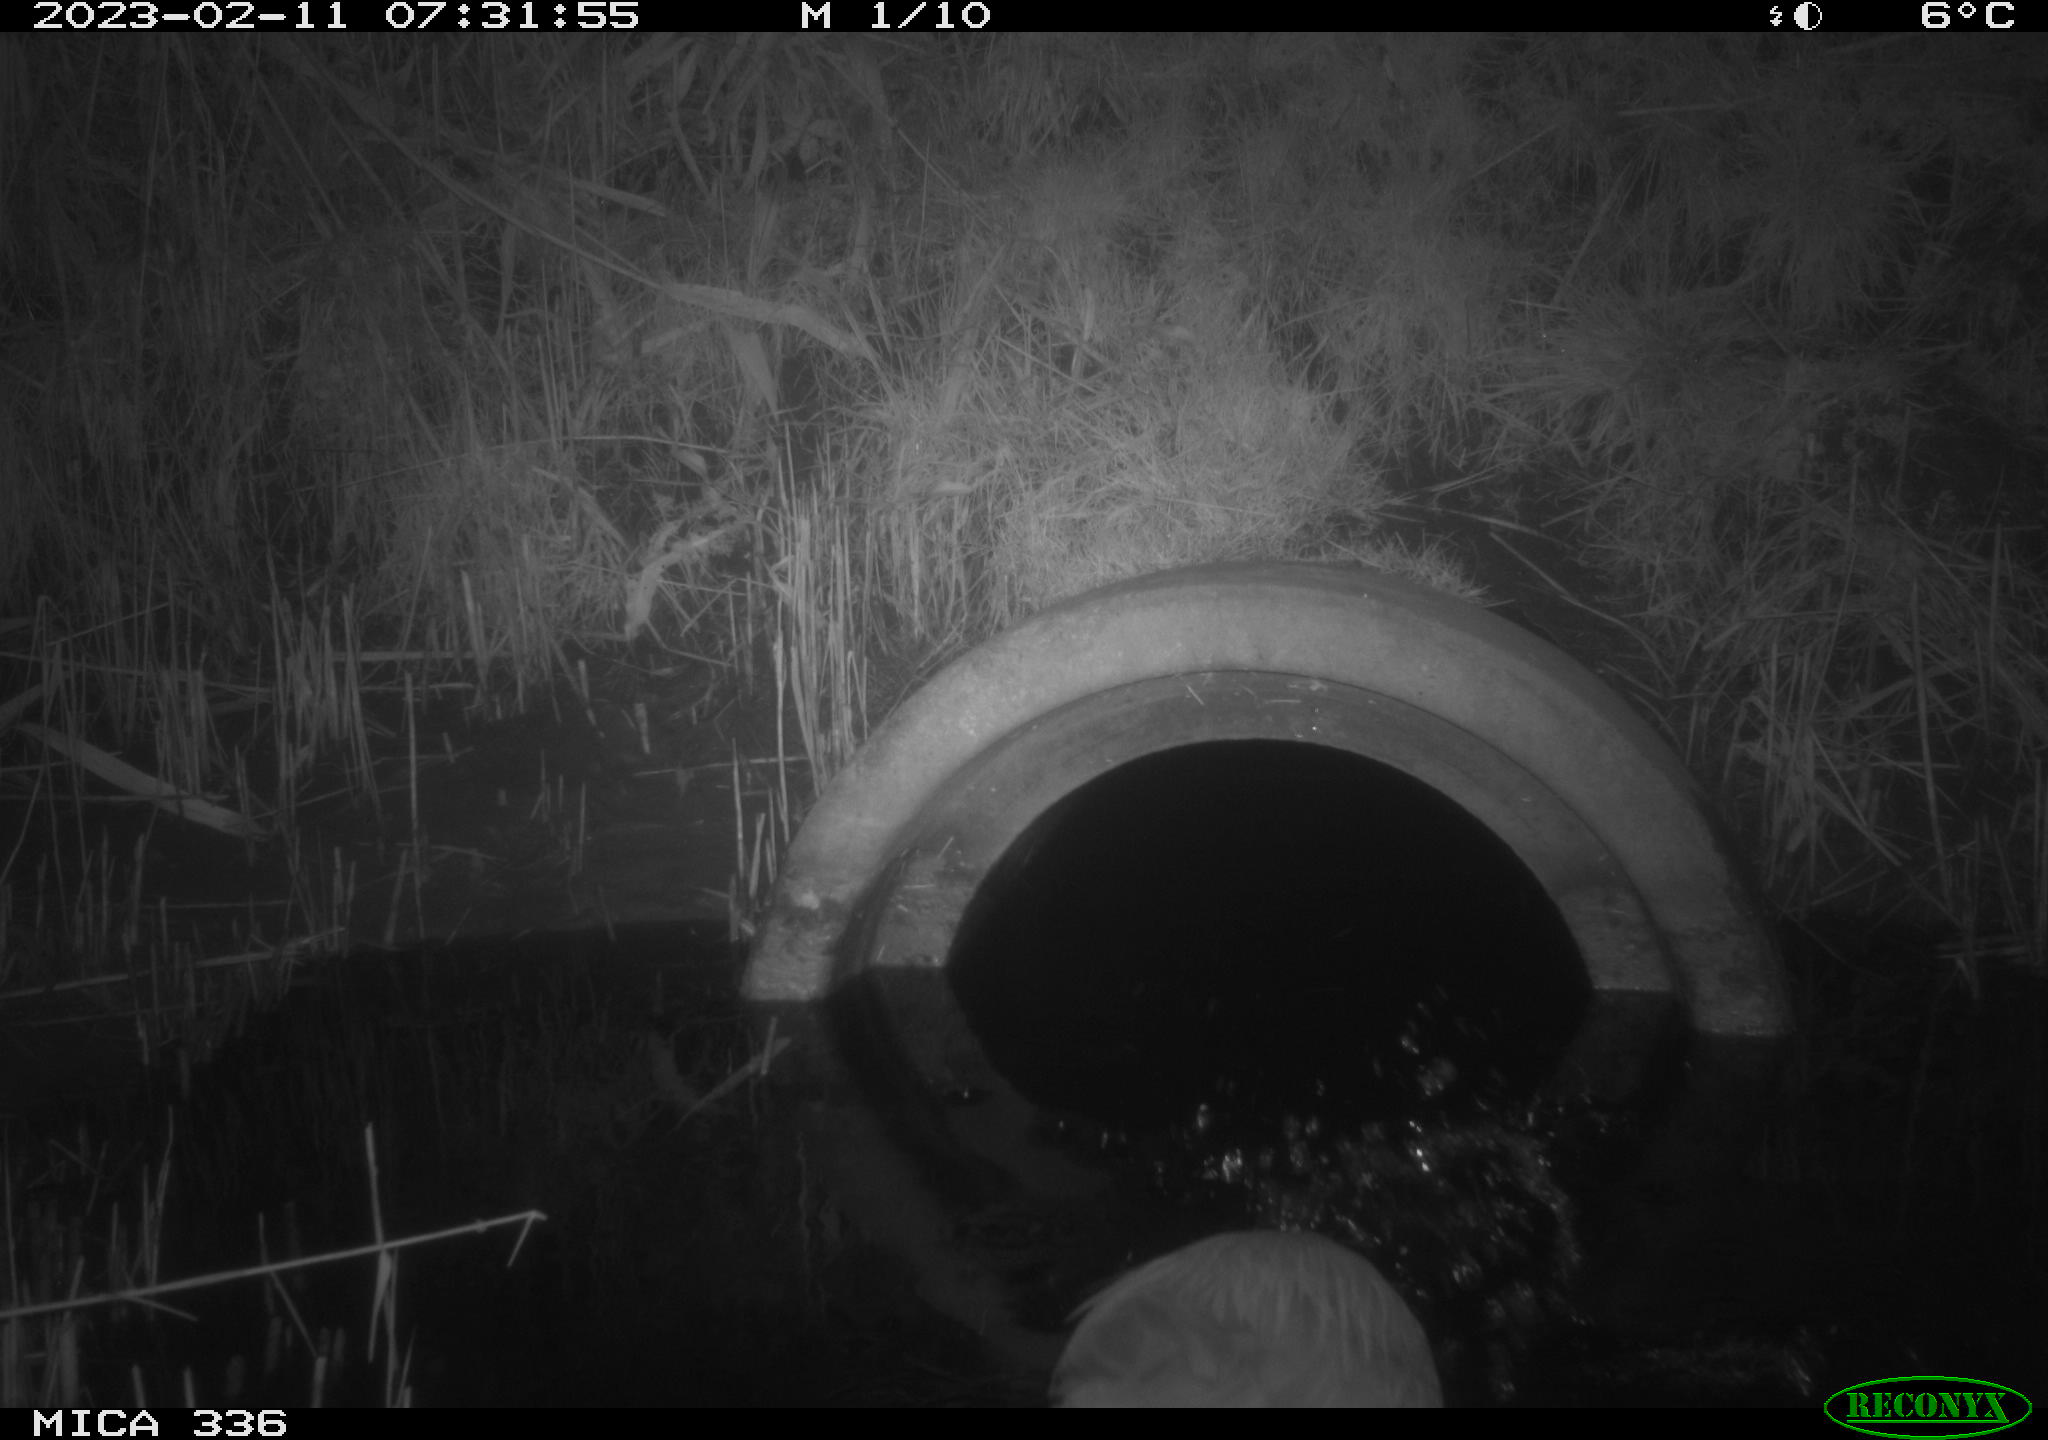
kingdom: Animalia
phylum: Chordata
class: Aves
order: Pelecaniformes
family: Ardeidae
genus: Ardea
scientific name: Ardea cinerea
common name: Grey heron
